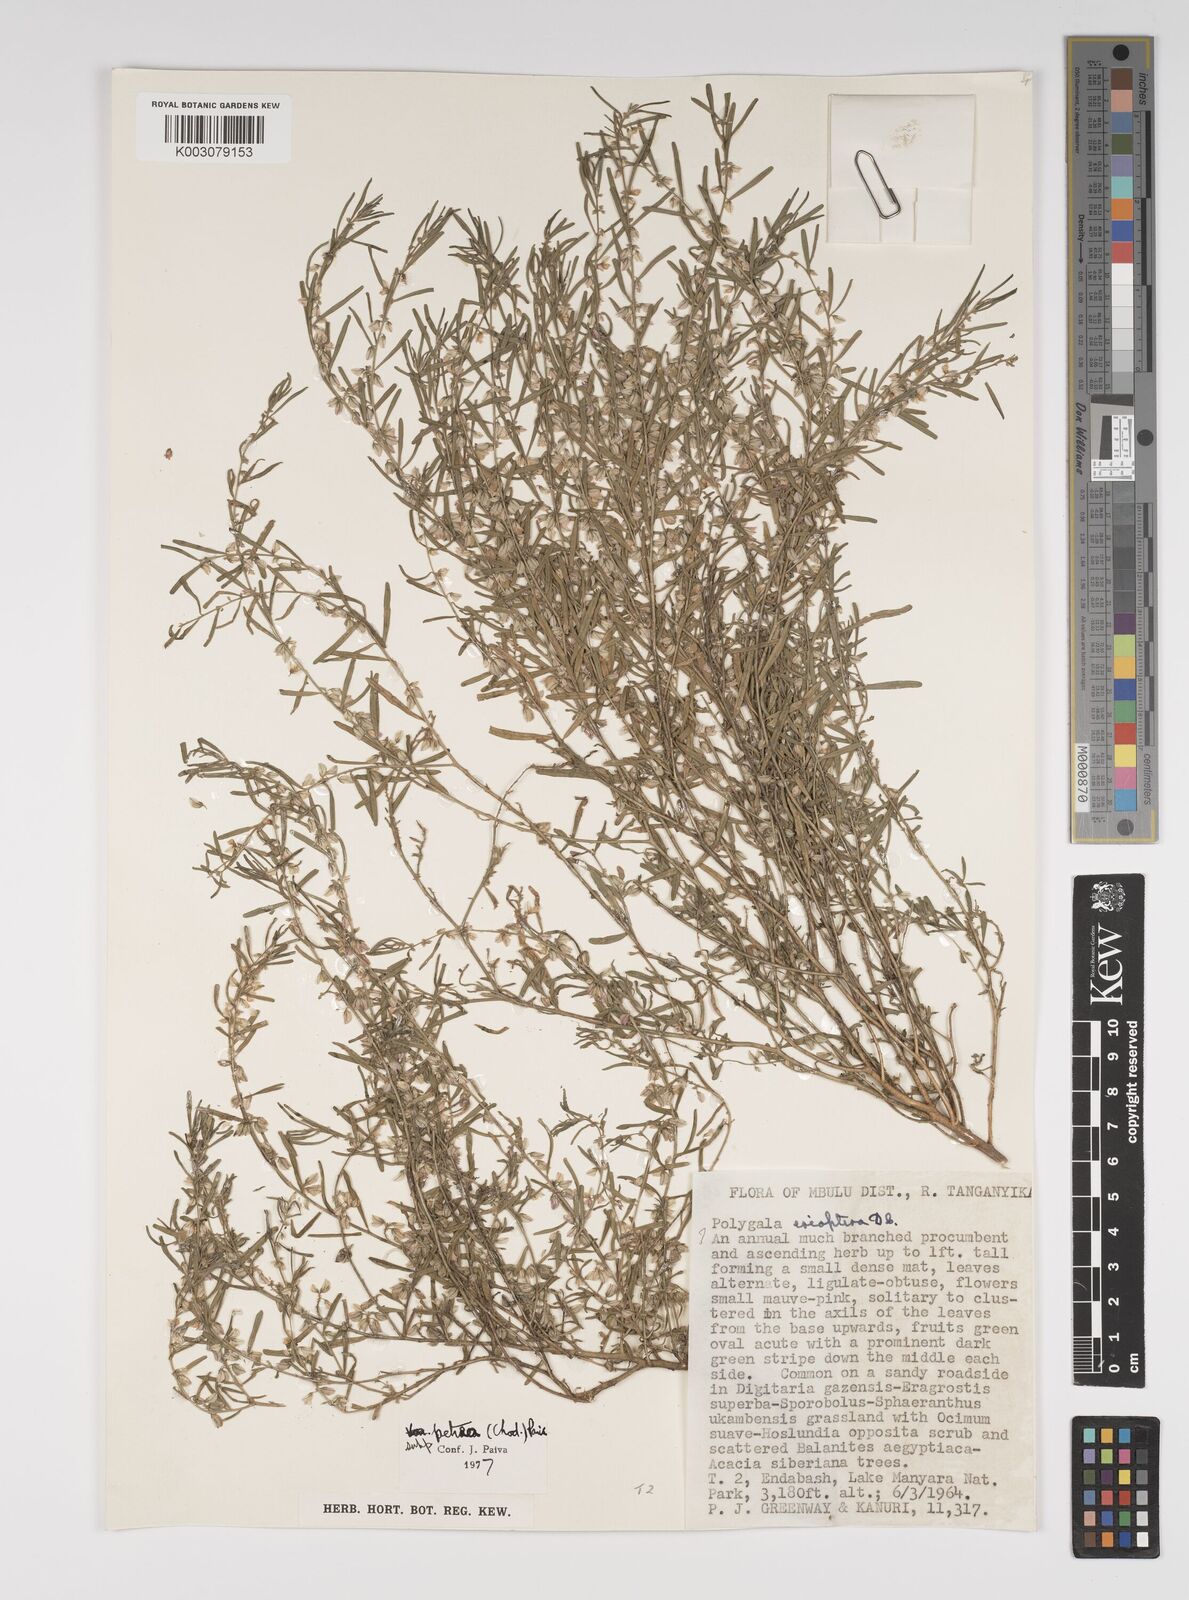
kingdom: Plantae
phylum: Tracheophyta
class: Magnoliopsida
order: Fabales
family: Polygalaceae
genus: Polygala
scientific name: Polygala erioptera
